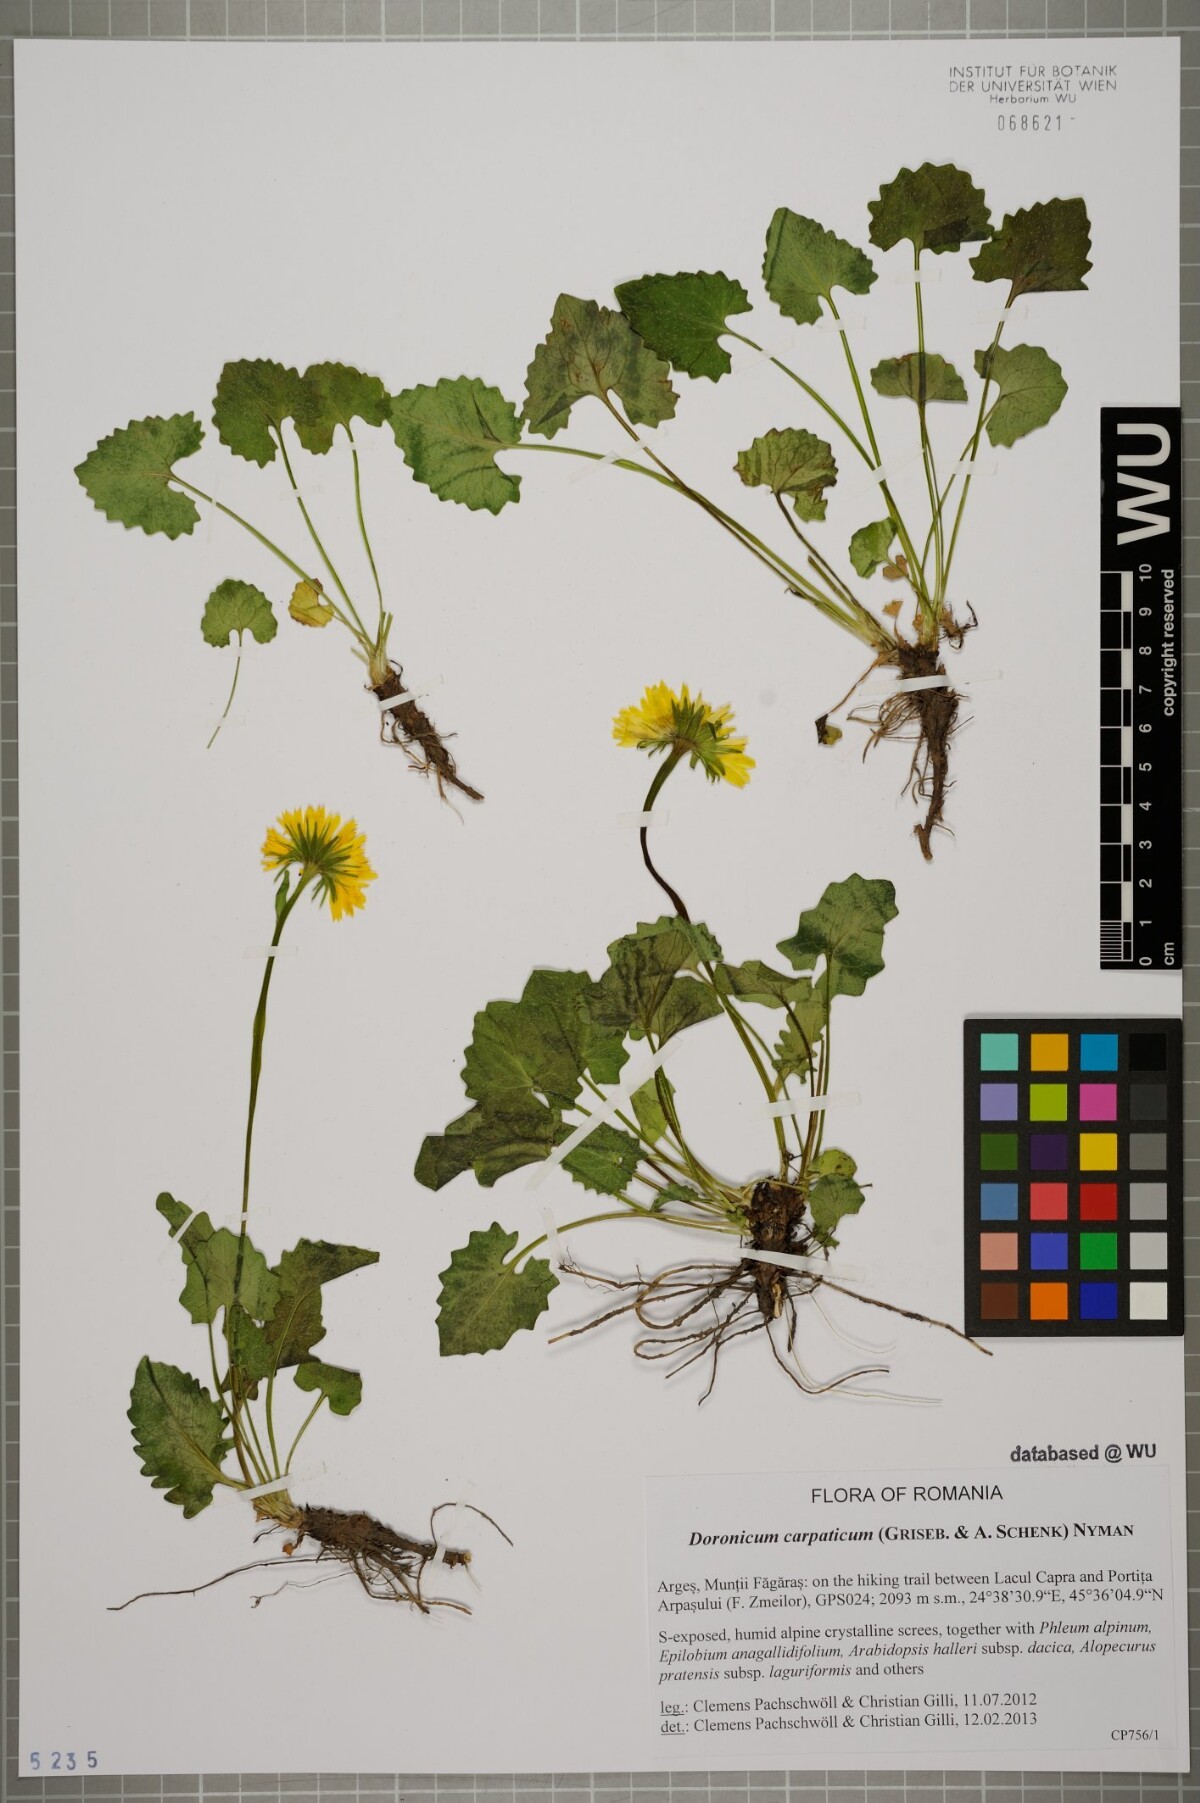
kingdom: Plantae
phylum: Tracheophyta
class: Magnoliopsida
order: Asterales
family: Asteraceae
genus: Doronicum
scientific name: Doronicum carpaticum
